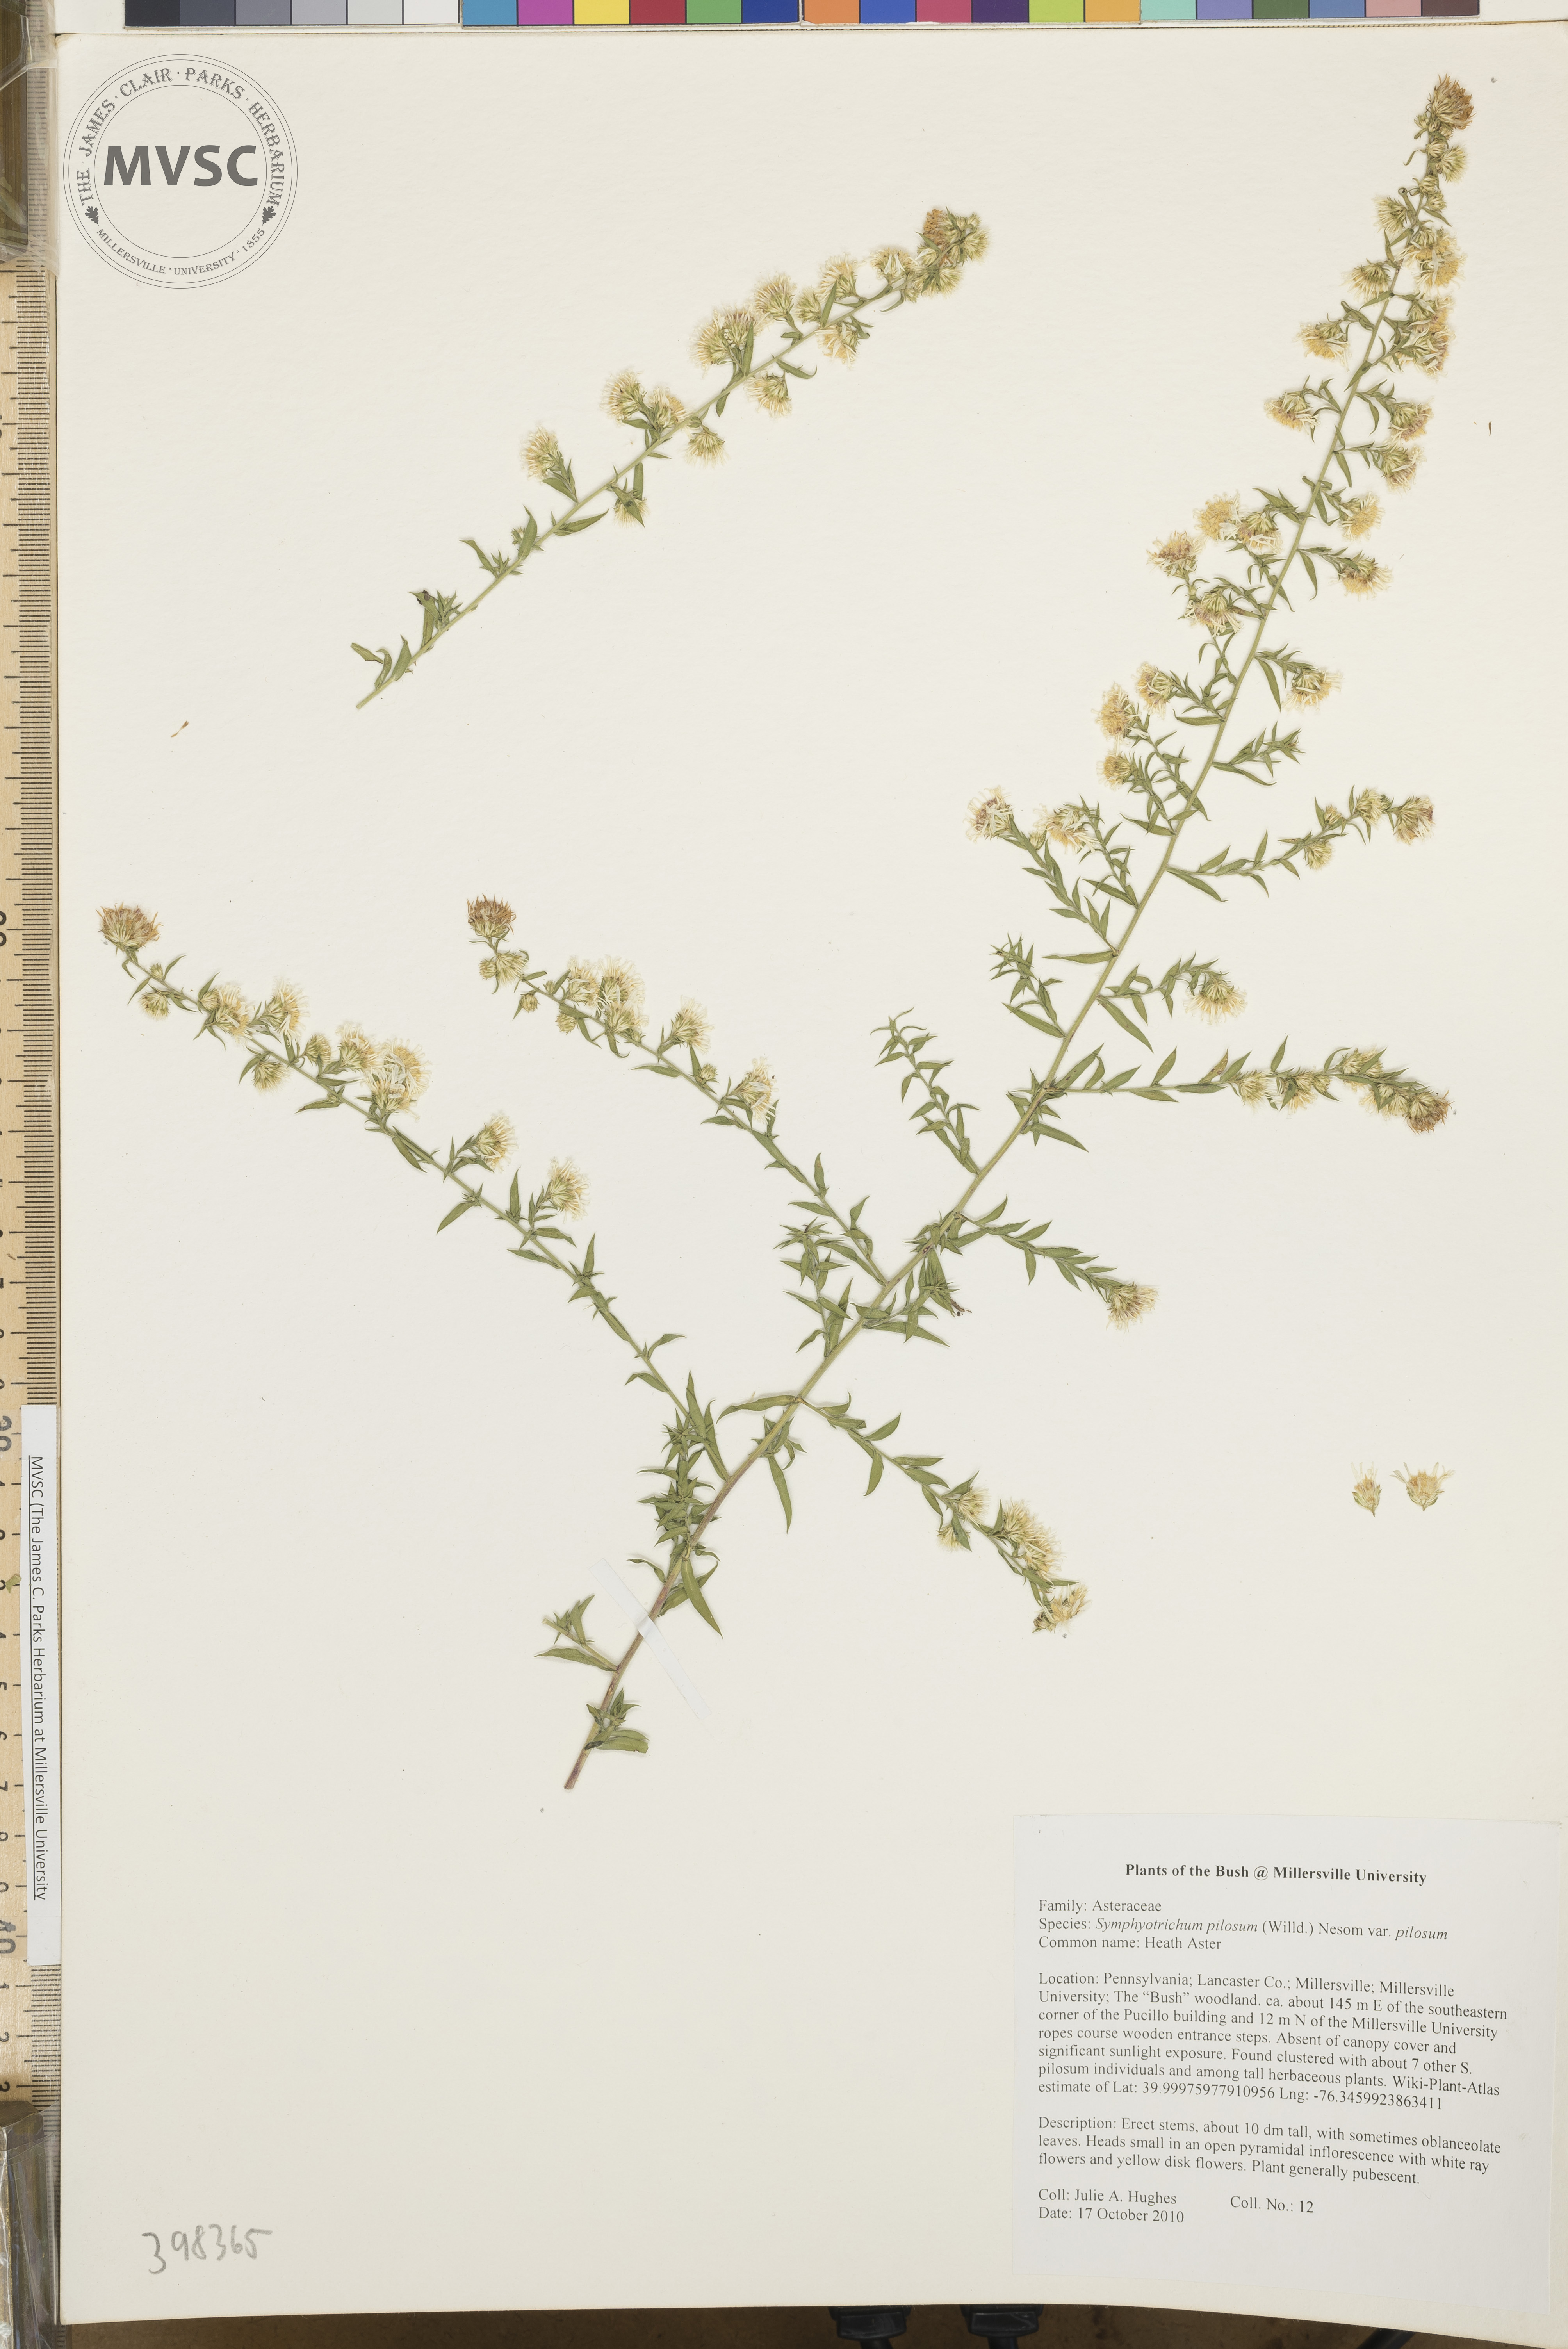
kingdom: Plantae
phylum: Tracheophyta
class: Magnoliopsida
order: Asterales
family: Asteraceae
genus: Symphyotrichum
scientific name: Symphyotrichum pilosum
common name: Late purple aster
